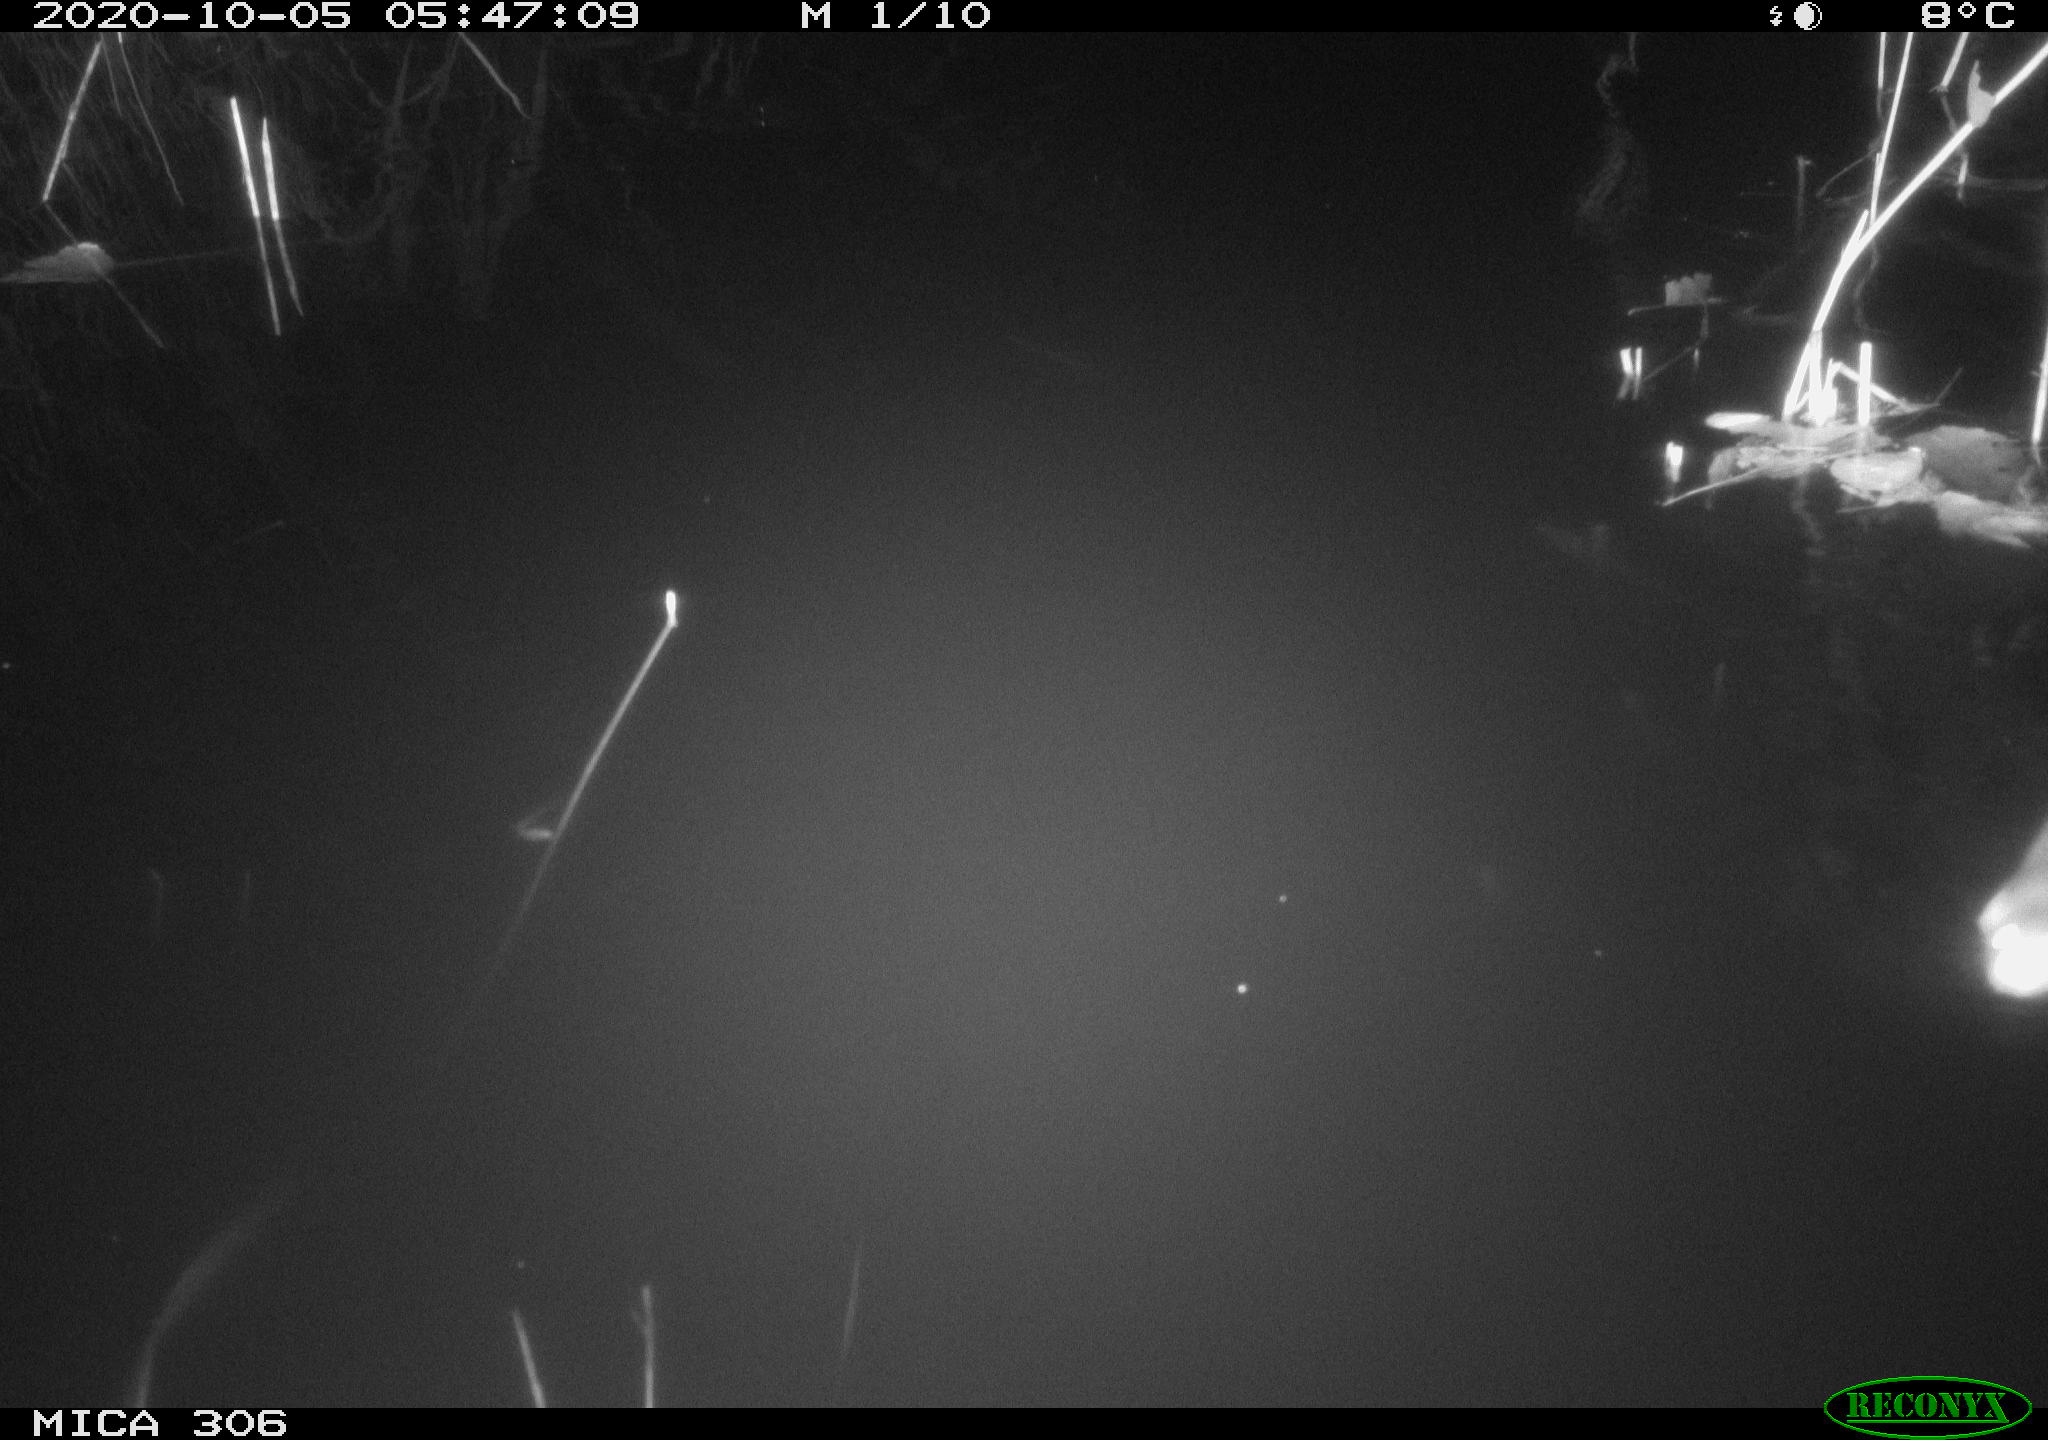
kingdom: Animalia
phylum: Chordata
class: Mammalia
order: Rodentia
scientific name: Rodentia
